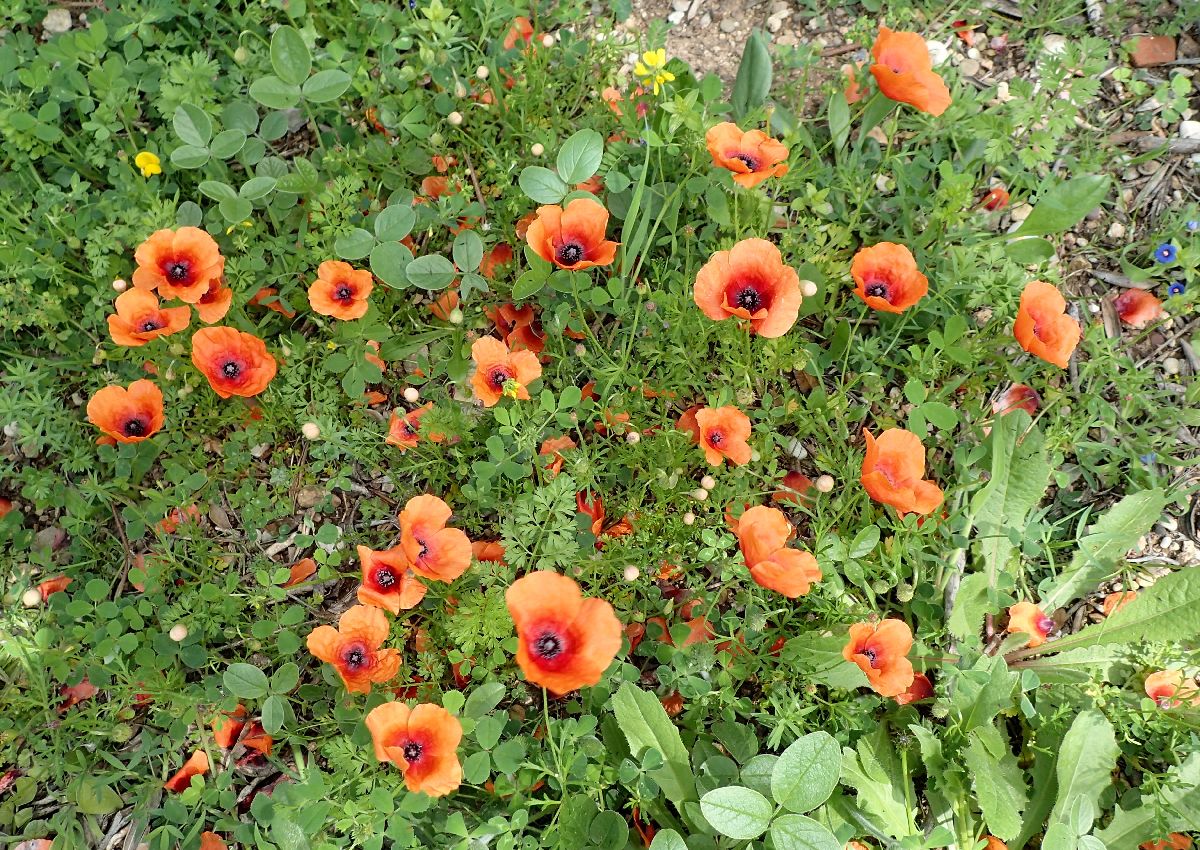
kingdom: Plantae
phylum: Tracheophyta
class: Magnoliopsida
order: Ranunculales
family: Papaveraceae
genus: Roemeria
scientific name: Roemeria apula
